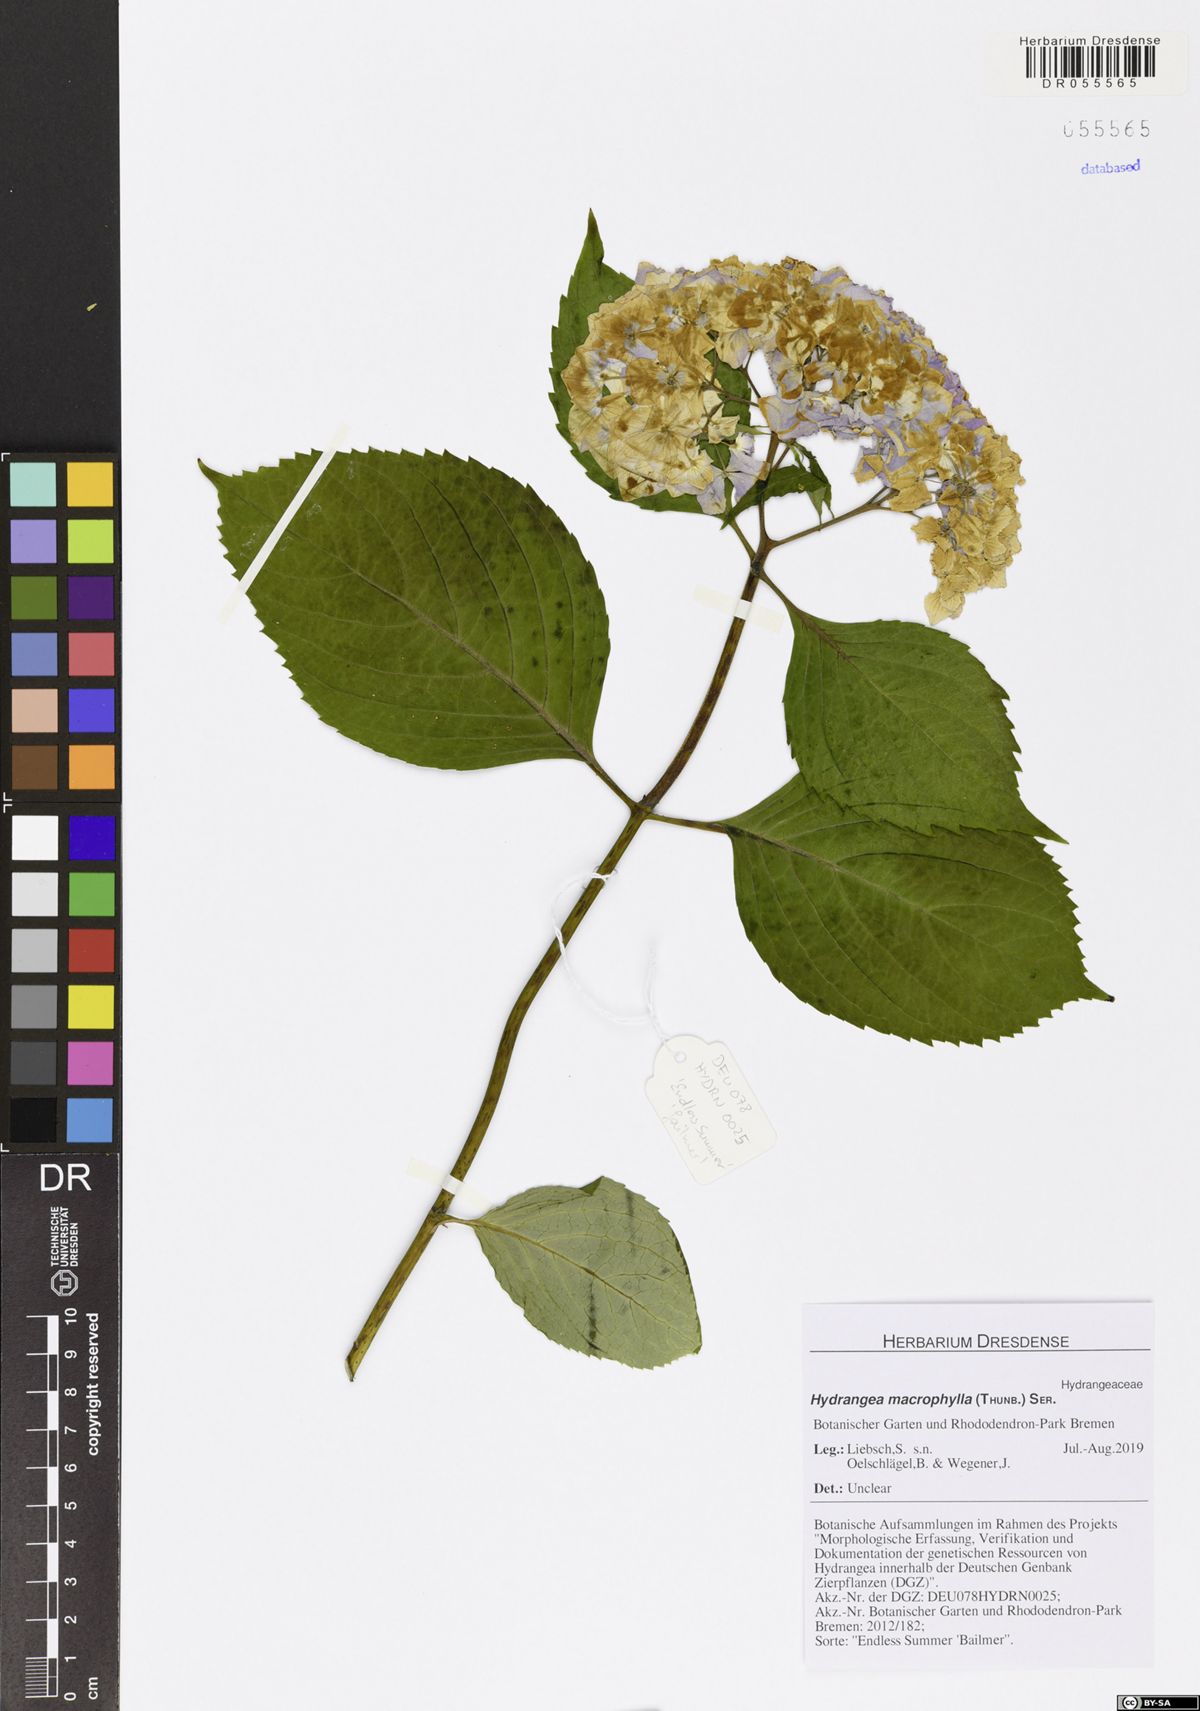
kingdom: Plantae
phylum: Tracheophyta
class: Magnoliopsida
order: Cornales
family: Hydrangeaceae
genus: Hydrangea
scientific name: Hydrangea macrophylla
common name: Hydrangea
